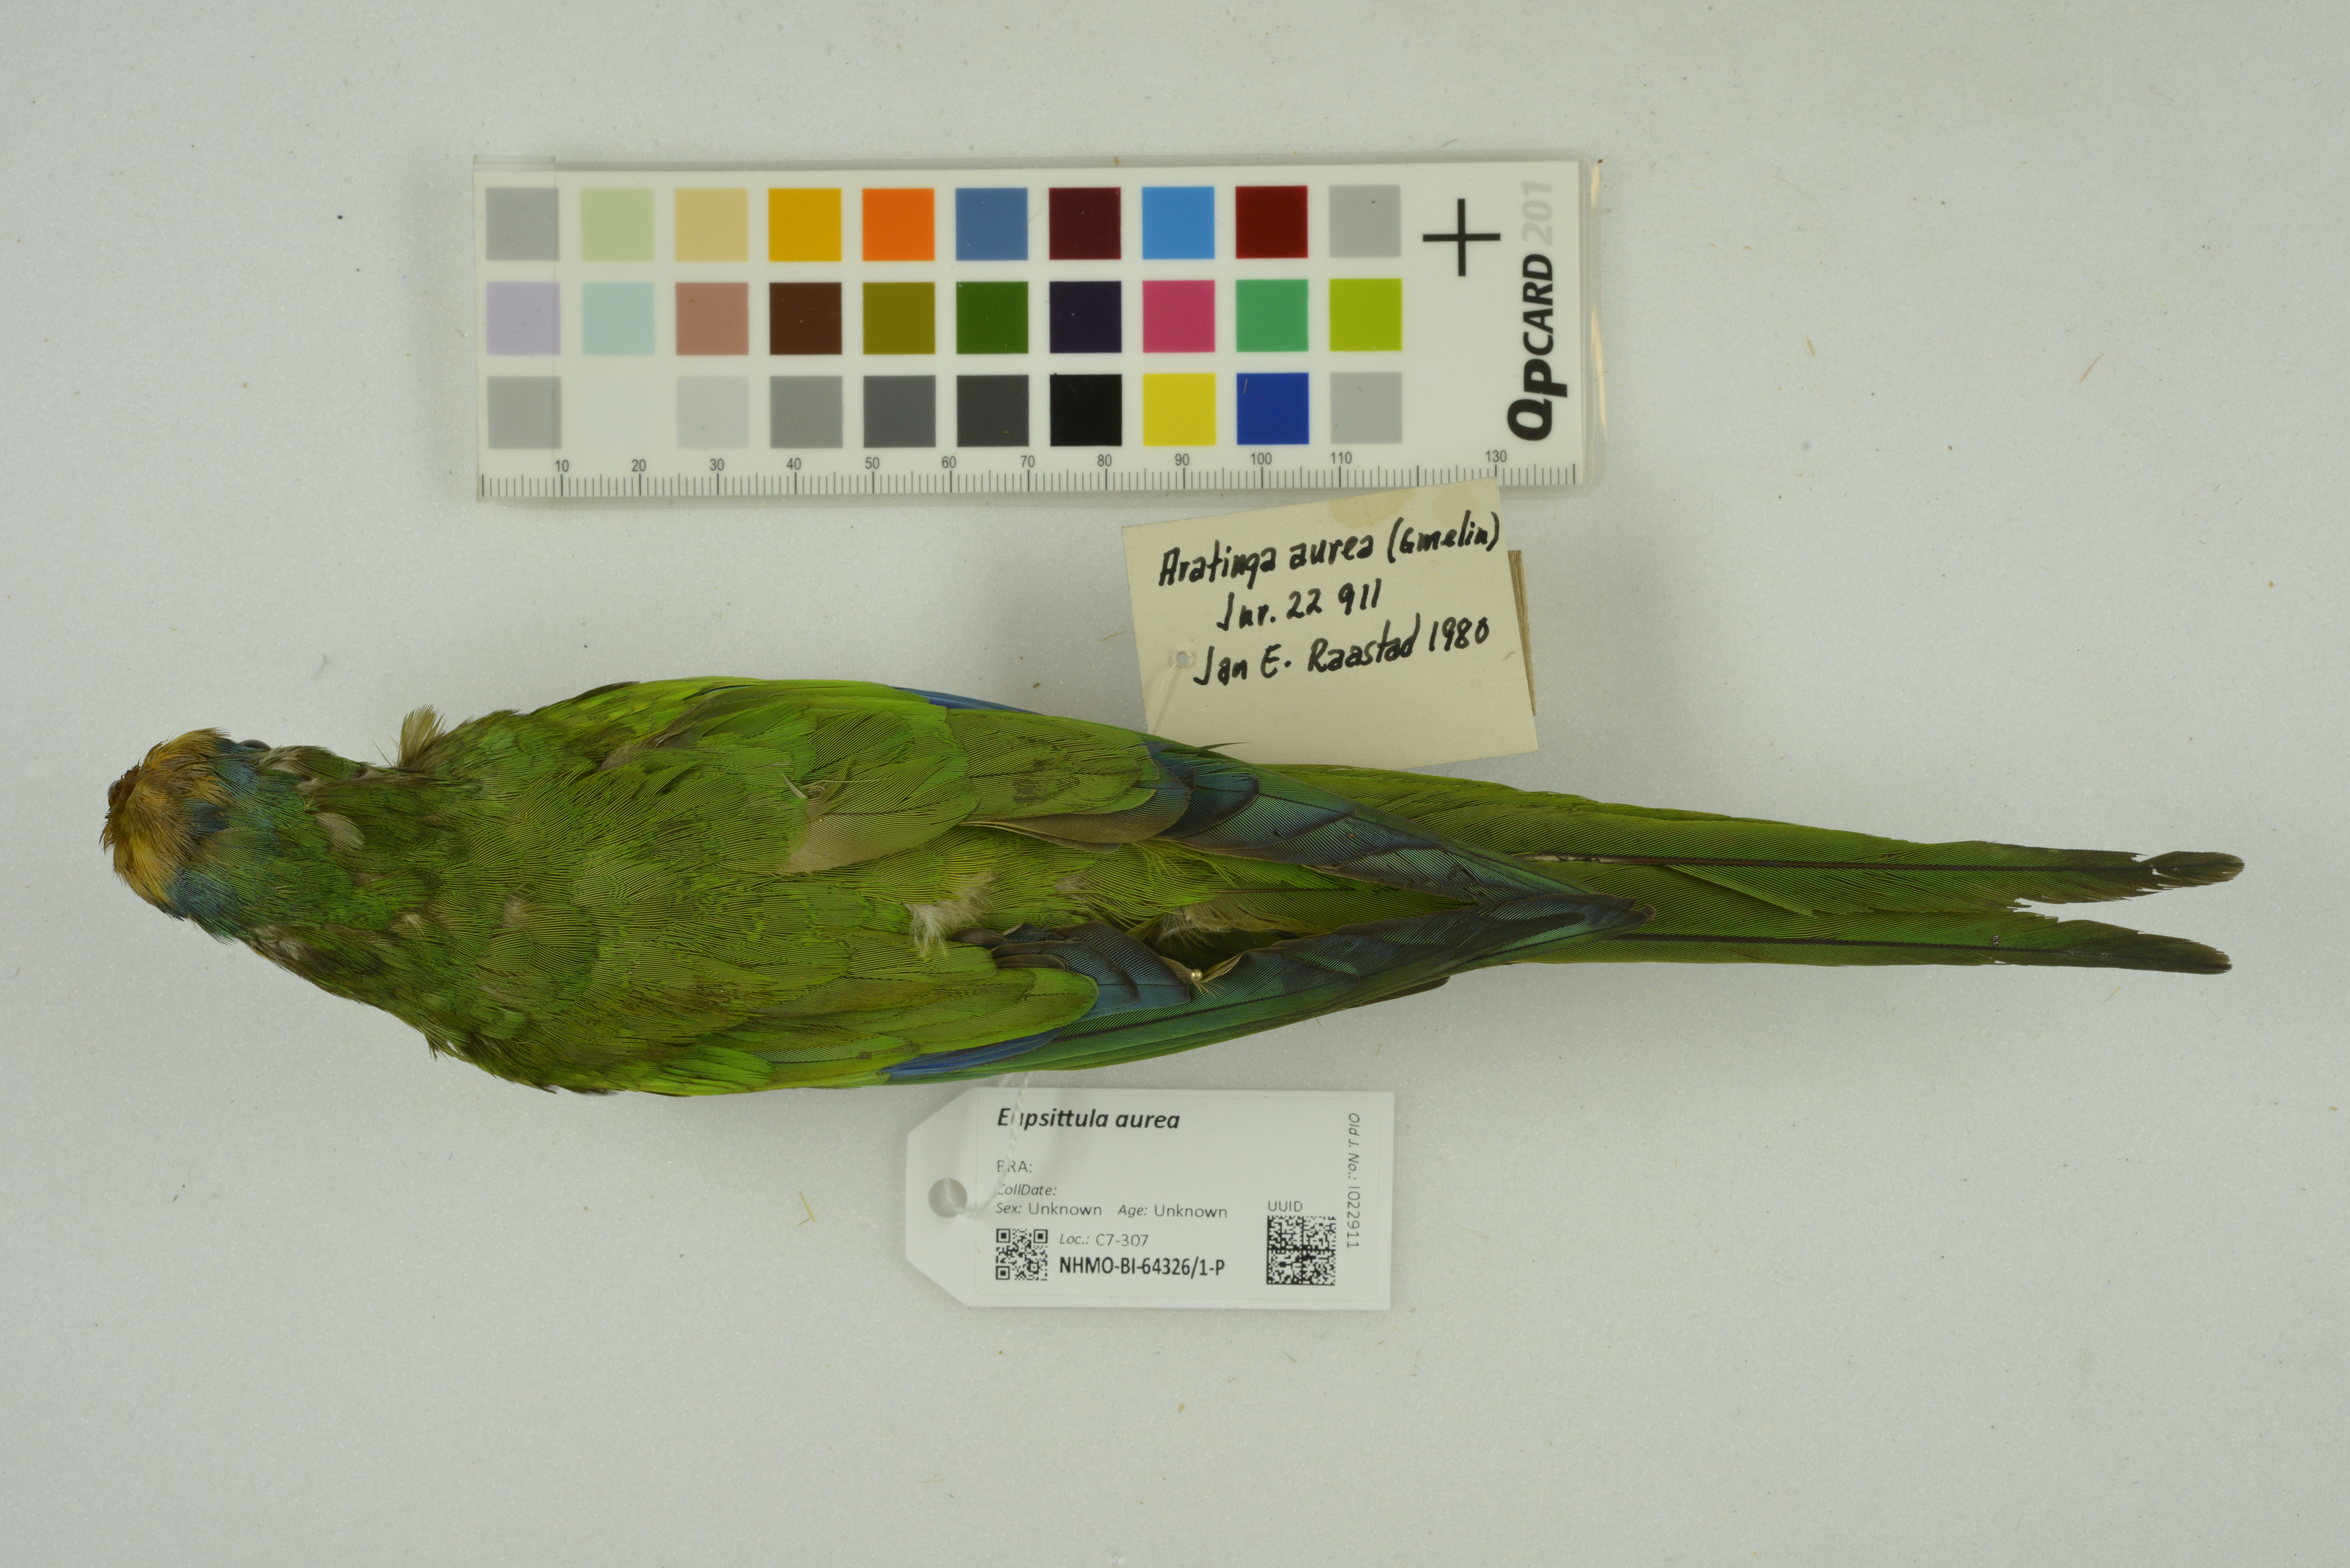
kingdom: Animalia
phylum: Chordata
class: Aves
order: Psittaciformes
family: Psittacidae
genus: Aratinga
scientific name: Aratinga aurea
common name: Peach-fronted parakeet
